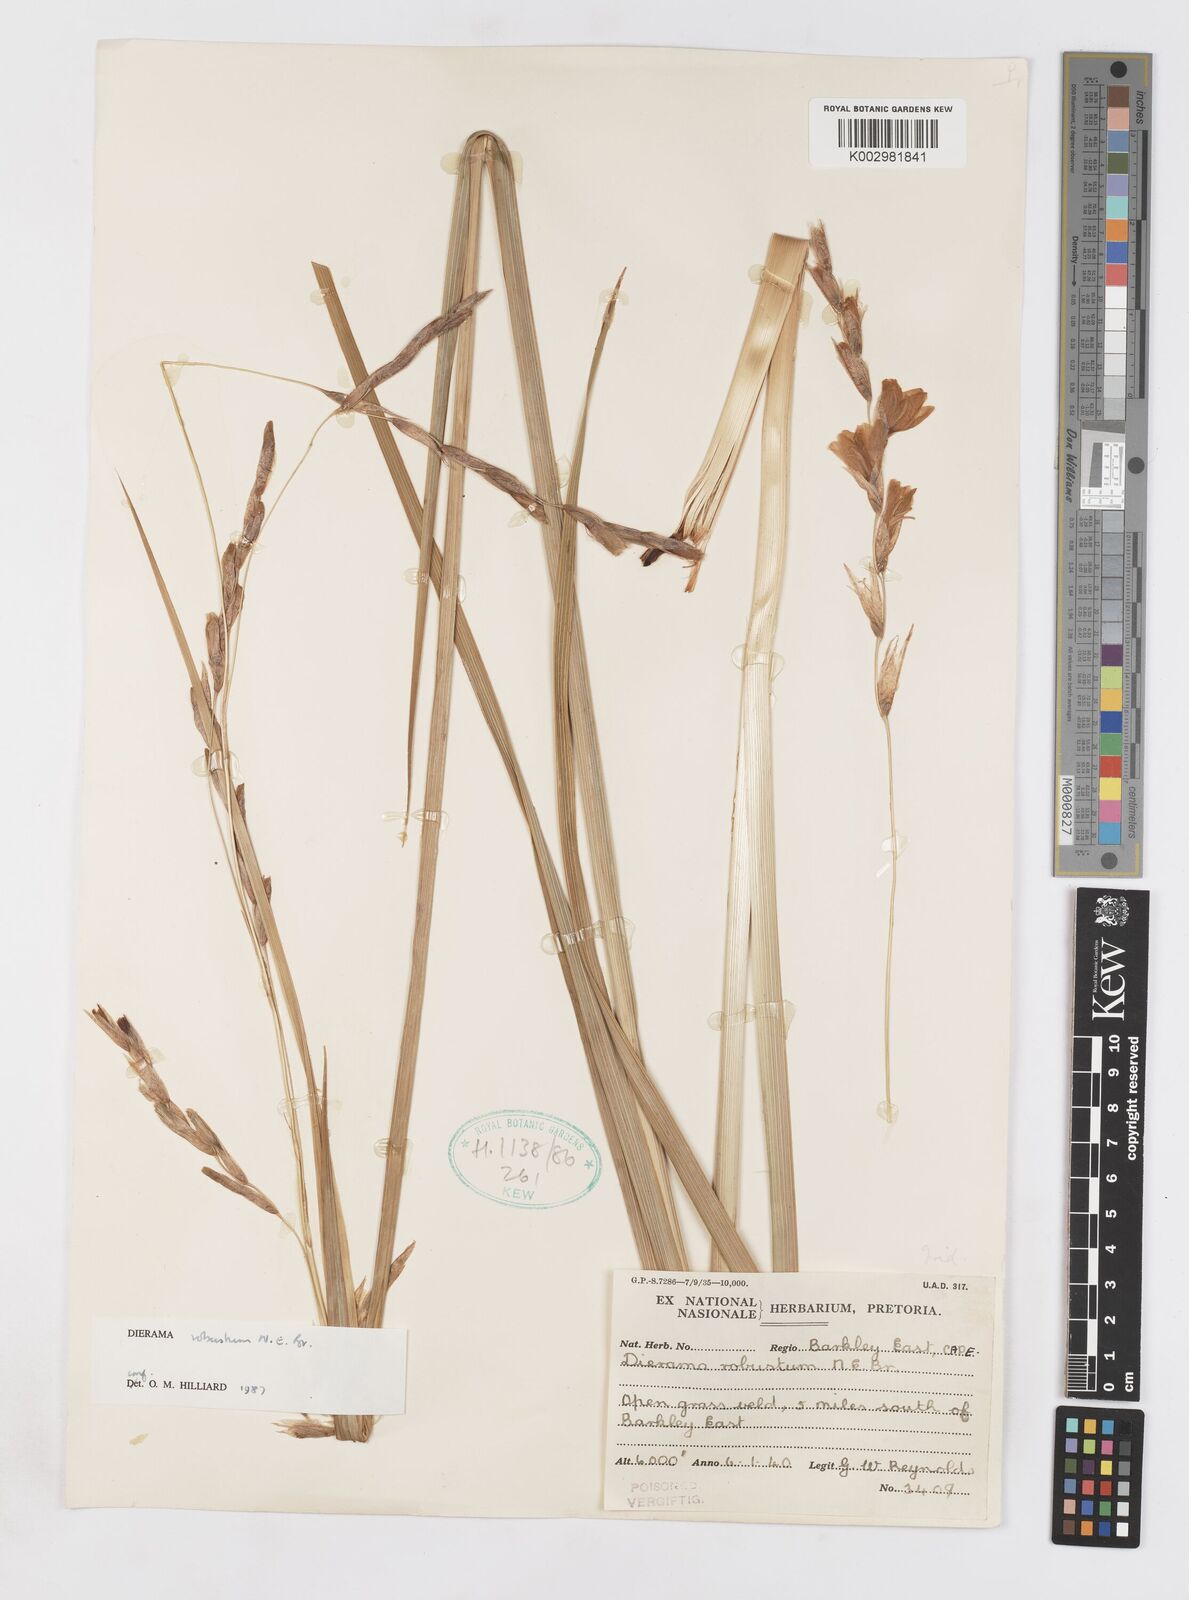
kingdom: Plantae
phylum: Tracheophyta
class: Liliopsida
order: Asparagales
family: Iridaceae
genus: Dierama
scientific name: Dierama robustum
